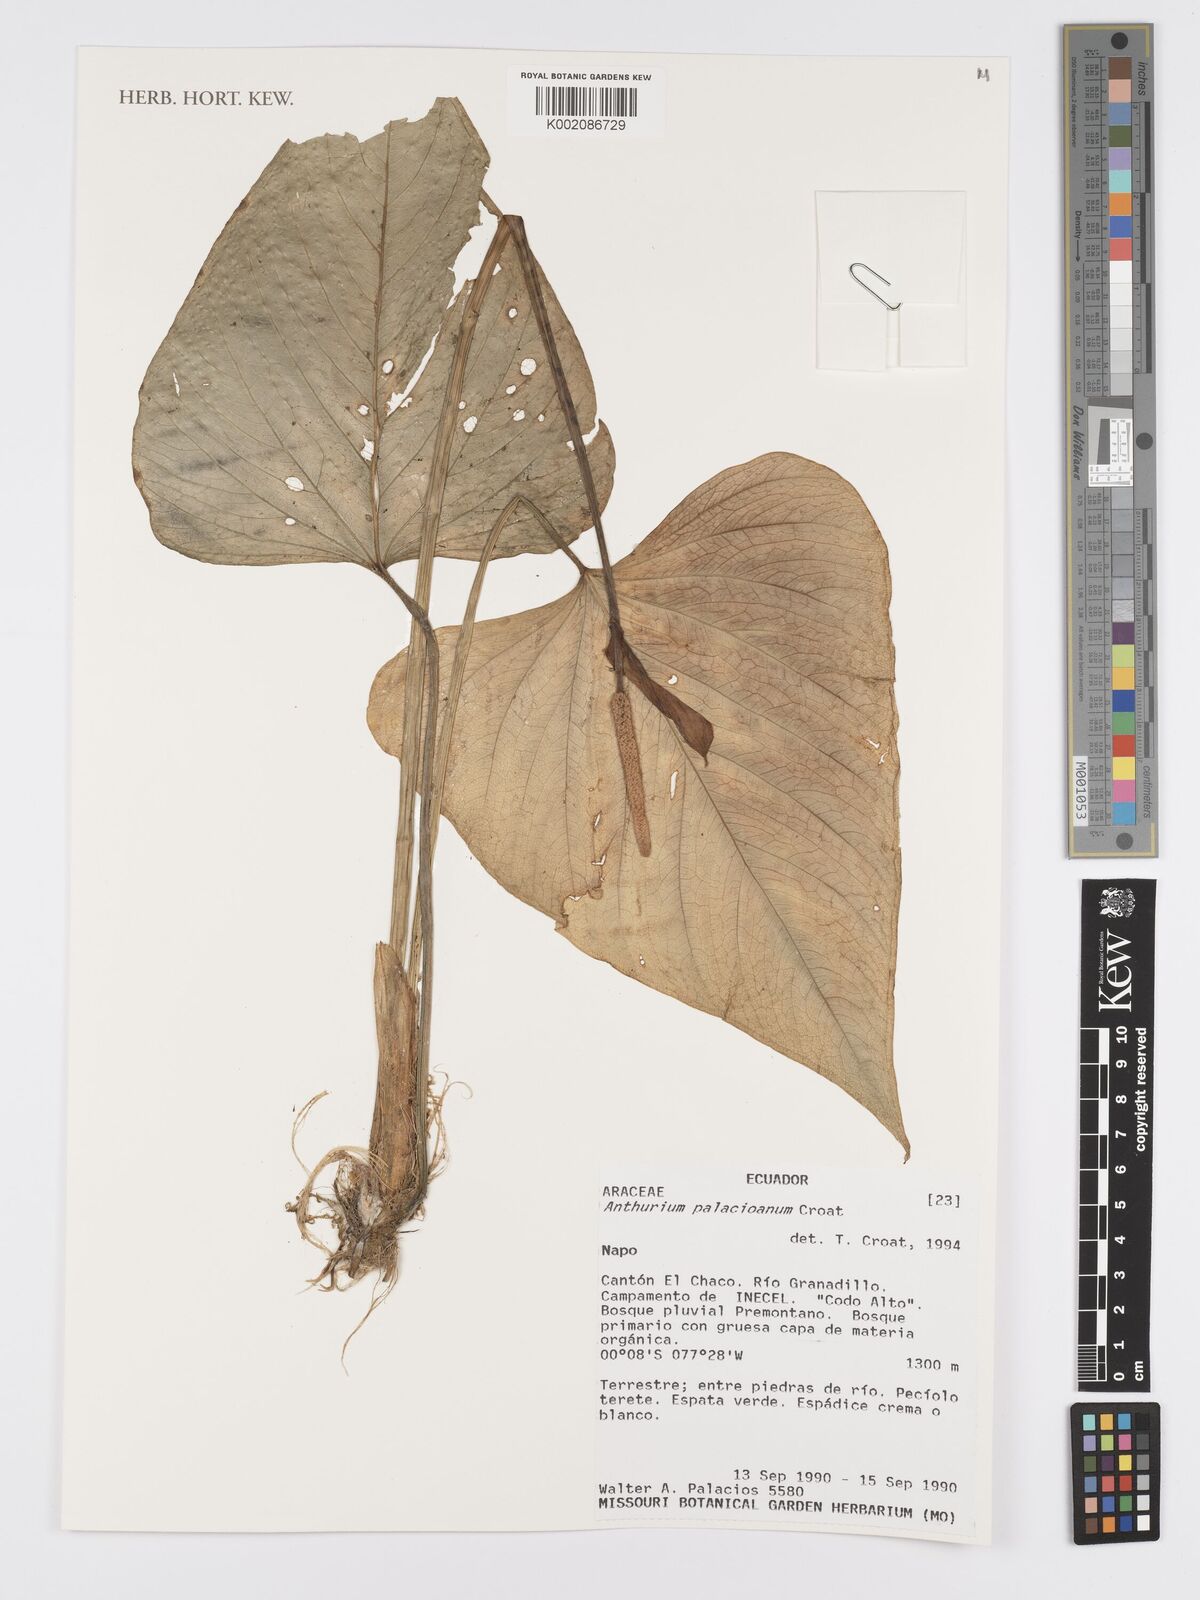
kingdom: Plantae
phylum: Tracheophyta
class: Liliopsida
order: Alismatales
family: Araceae
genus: Anthurium
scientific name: Anthurium palacioanum
